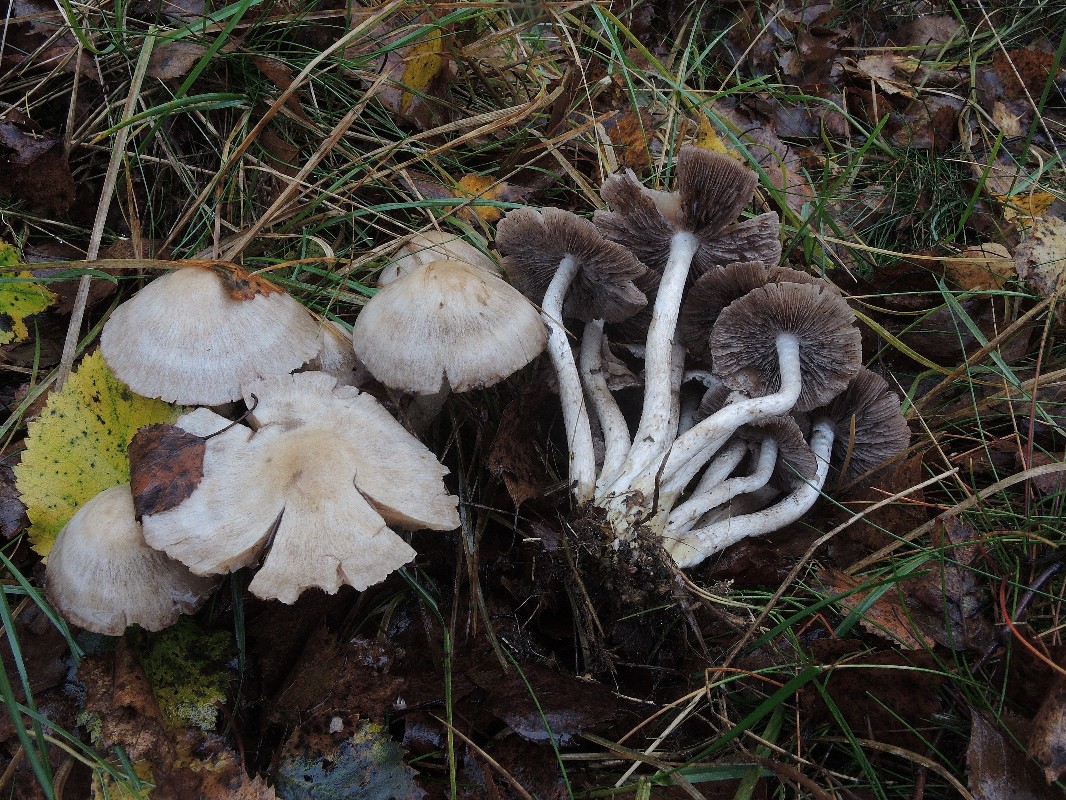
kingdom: Fungi
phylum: Basidiomycota
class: Agaricomycetes
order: Agaricales
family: Psathyrellaceae
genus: Psathyrella
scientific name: Psathyrella cotonea
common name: skællet mørkhat
